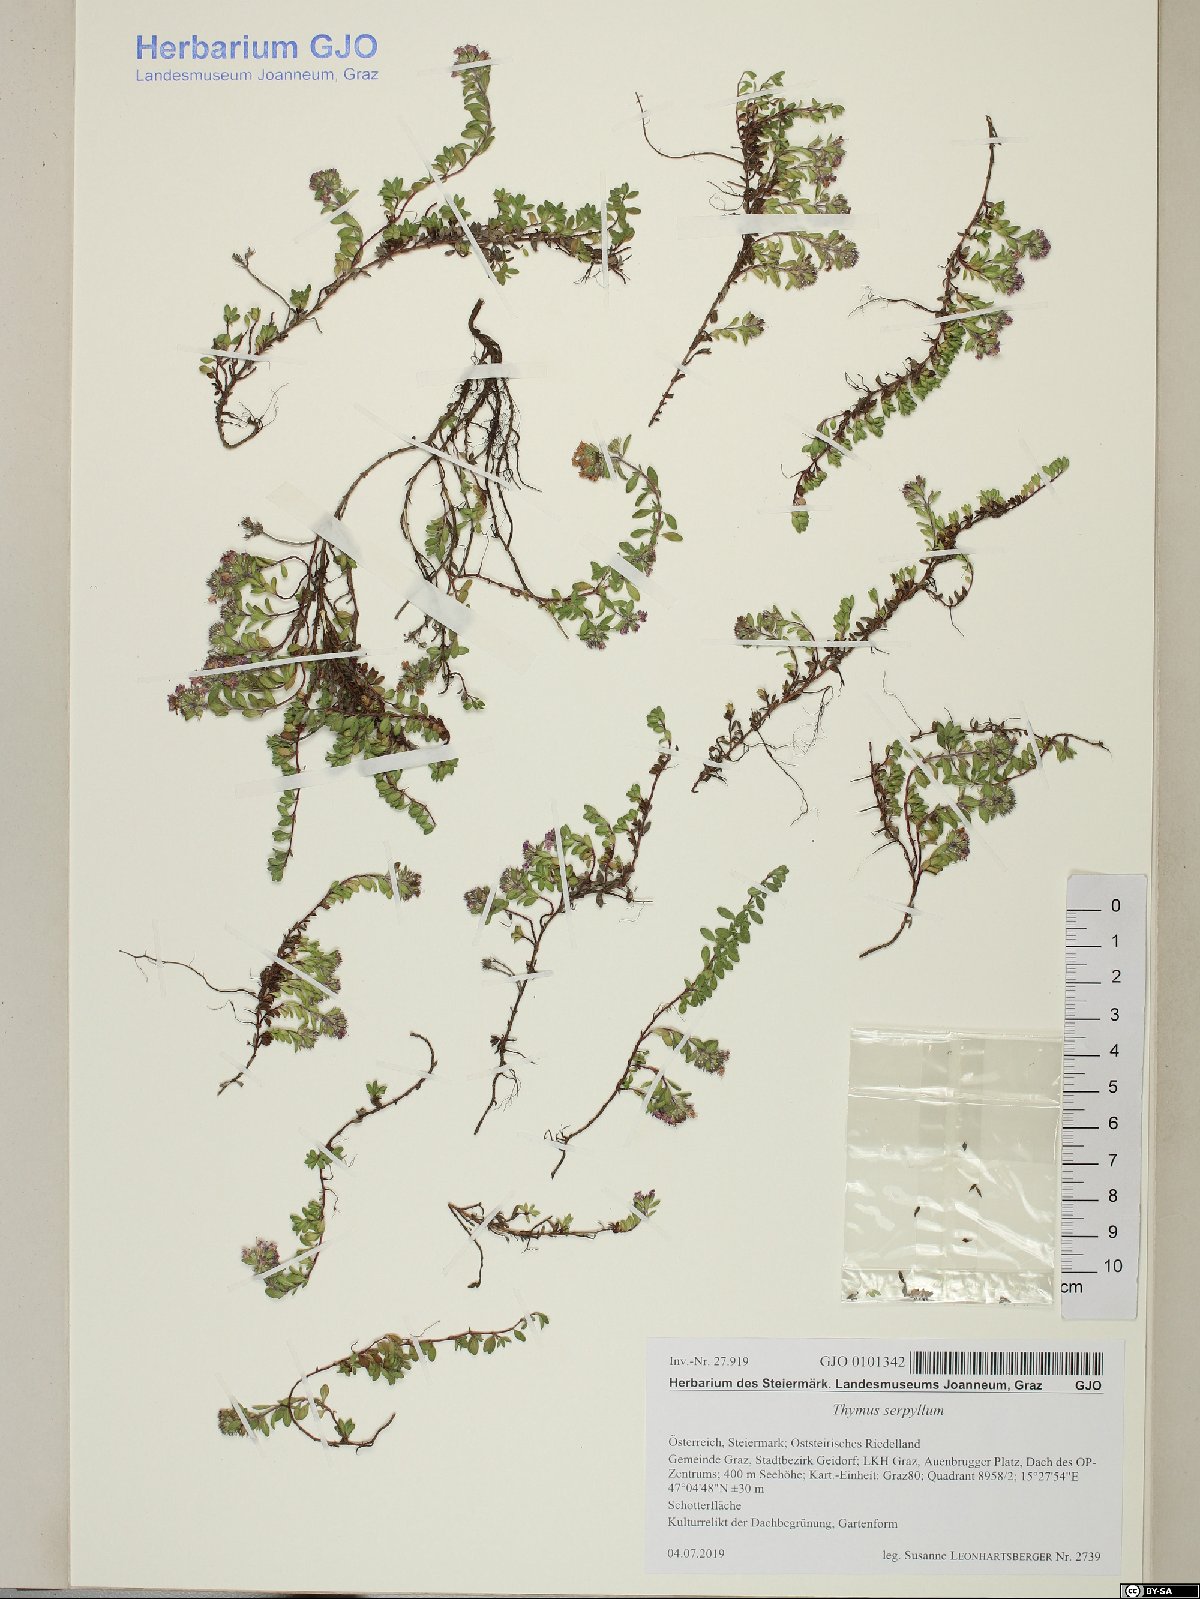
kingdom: Plantae
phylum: Tracheophyta
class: Magnoliopsida
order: Lamiales
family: Lamiaceae
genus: Thymus
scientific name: Thymus serpyllum
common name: Breckland thyme
